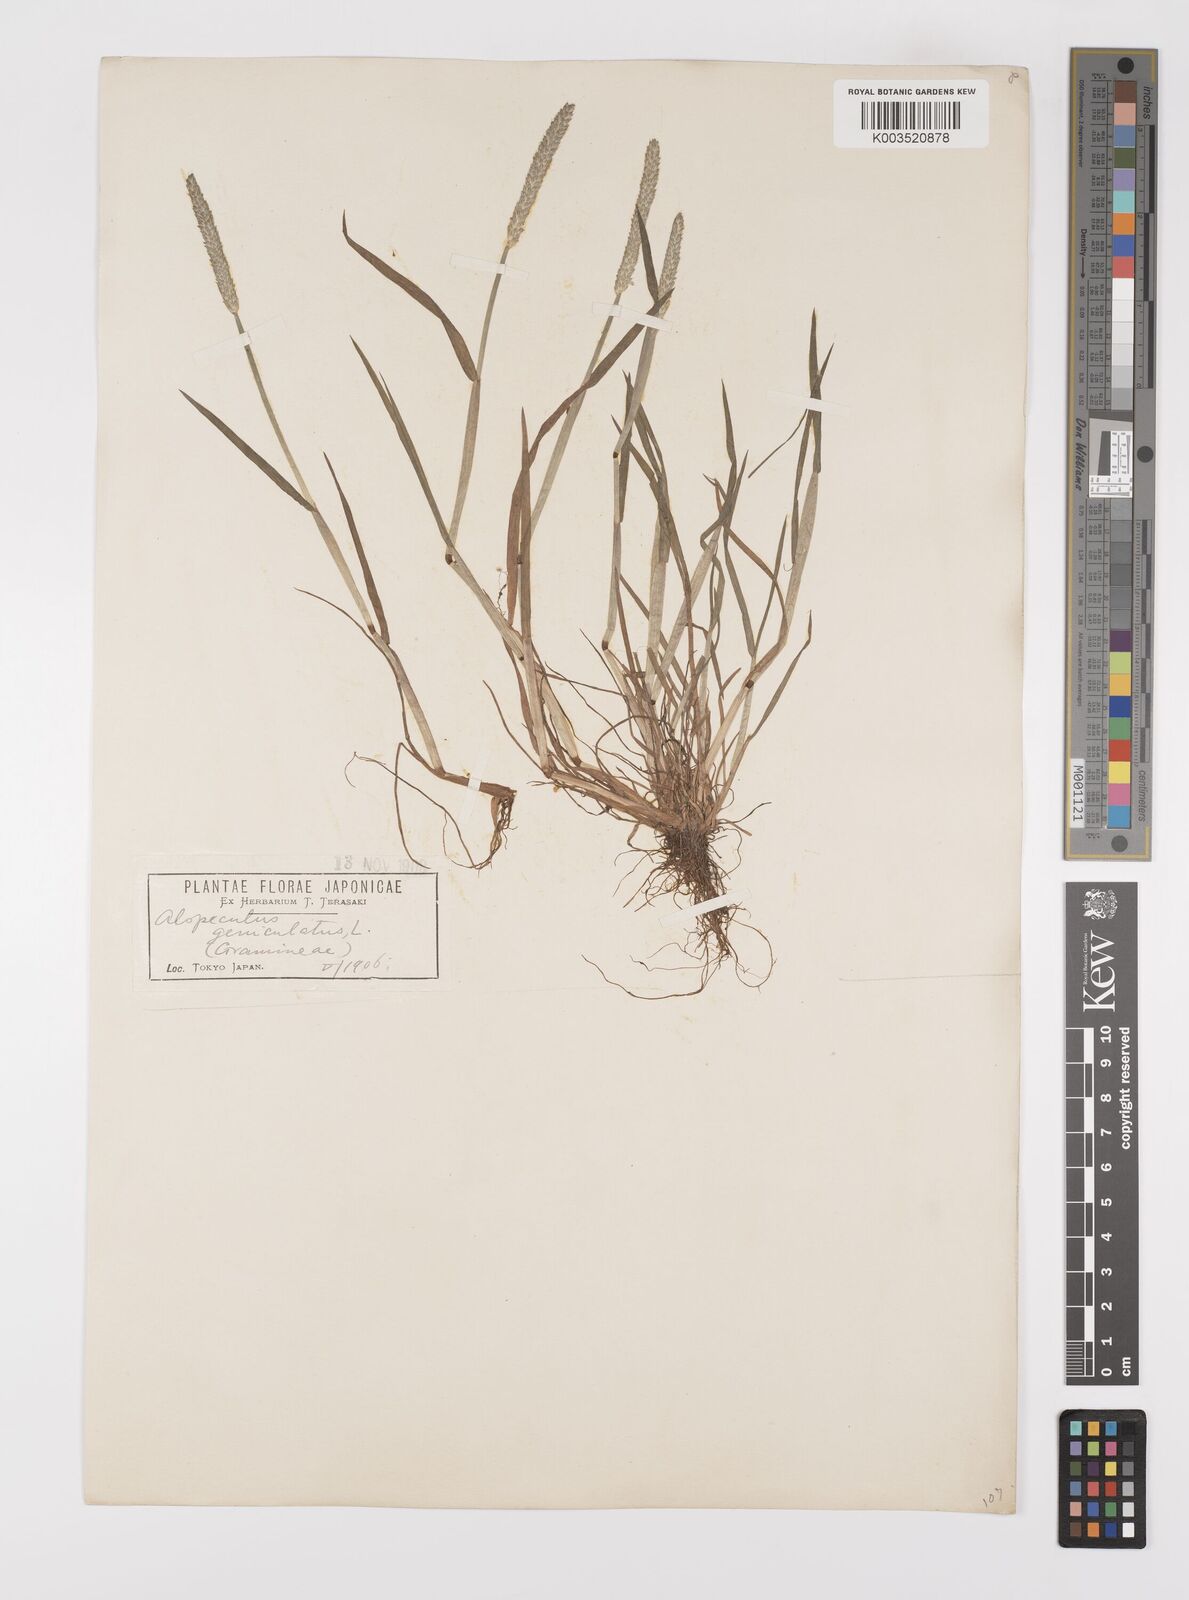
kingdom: Plantae
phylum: Tracheophyta
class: Liliopsida
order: Poales
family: Poaceae
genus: Alopecurus
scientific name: Alopecurus aequalis
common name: Orange foxtail
